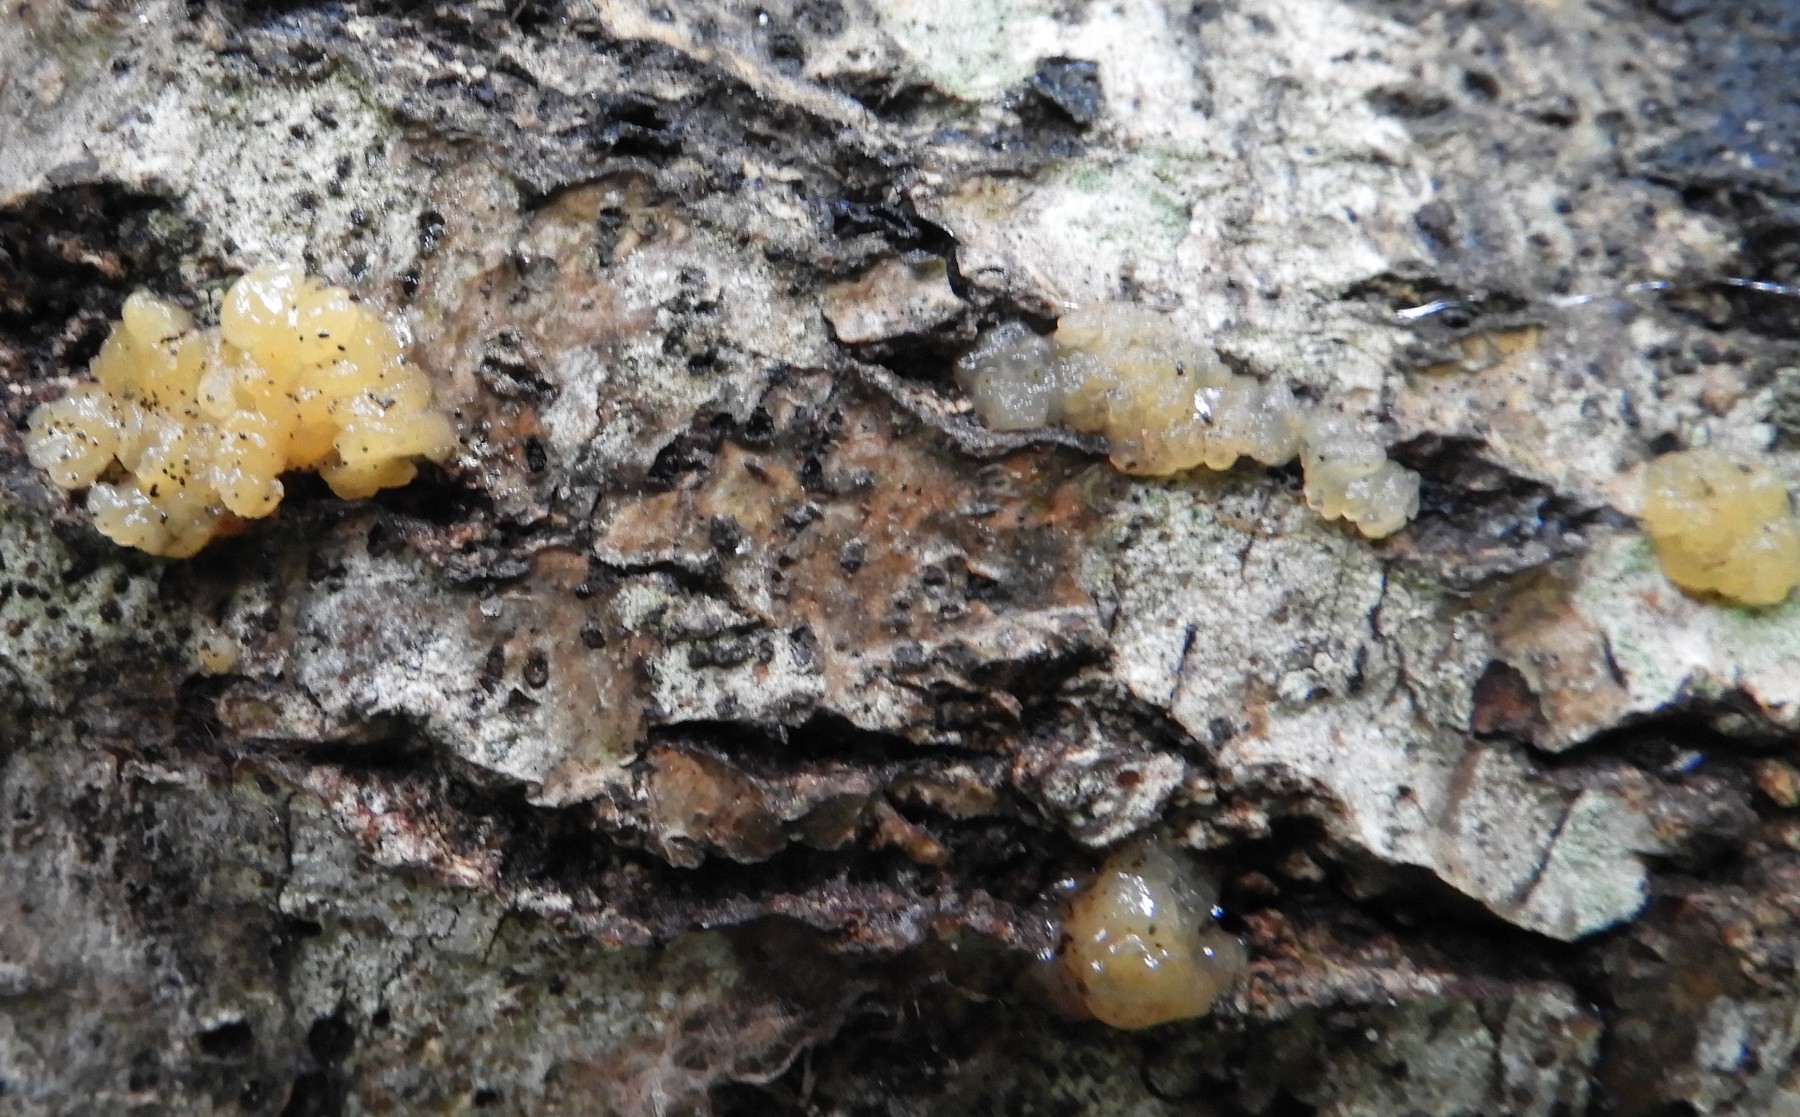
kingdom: Fungi
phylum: Basidiomycota
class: Dacrymycetes
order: Dacrymycetales
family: Dacrymycetaceae
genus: Dacrymyces
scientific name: Dacrymyces lacrymalis
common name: rynket tåresvamp
